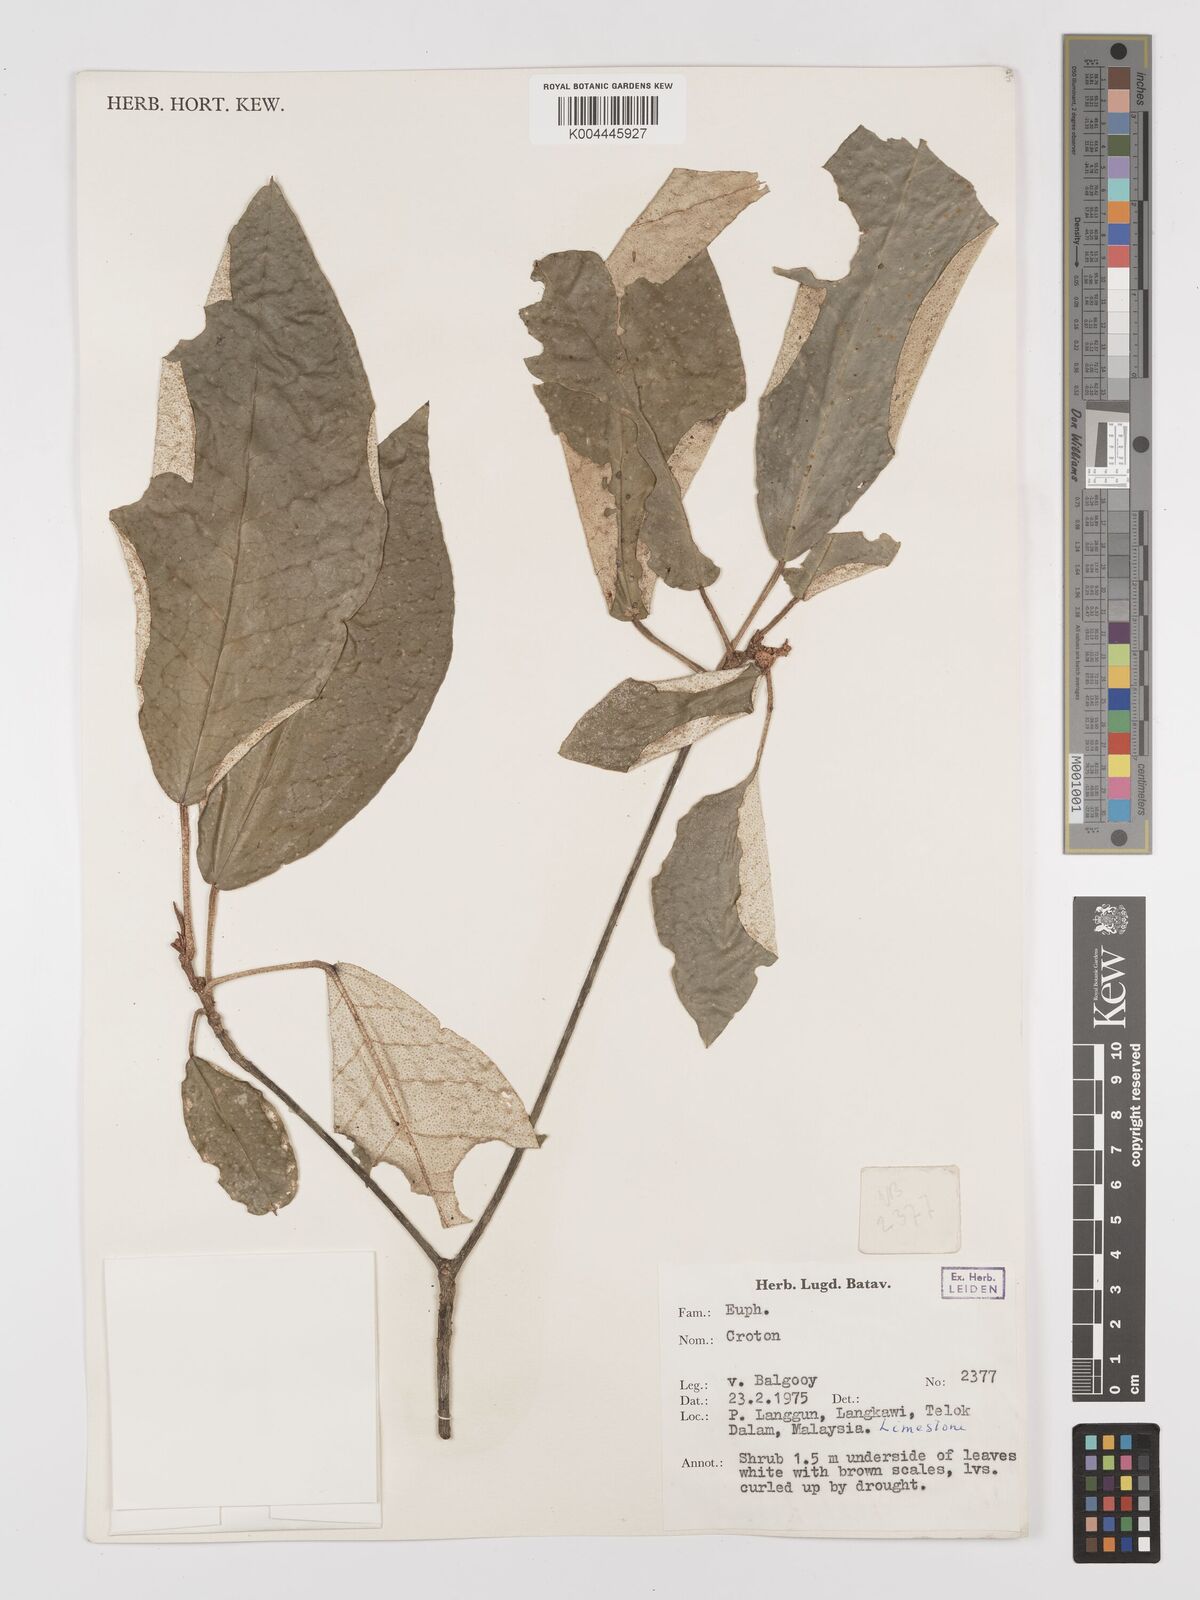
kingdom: Plantae
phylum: Tracheophyta
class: Magnoliopsida
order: Malpighiales
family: Euphorbiaceae
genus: Croton
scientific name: Croton cascarilloides
